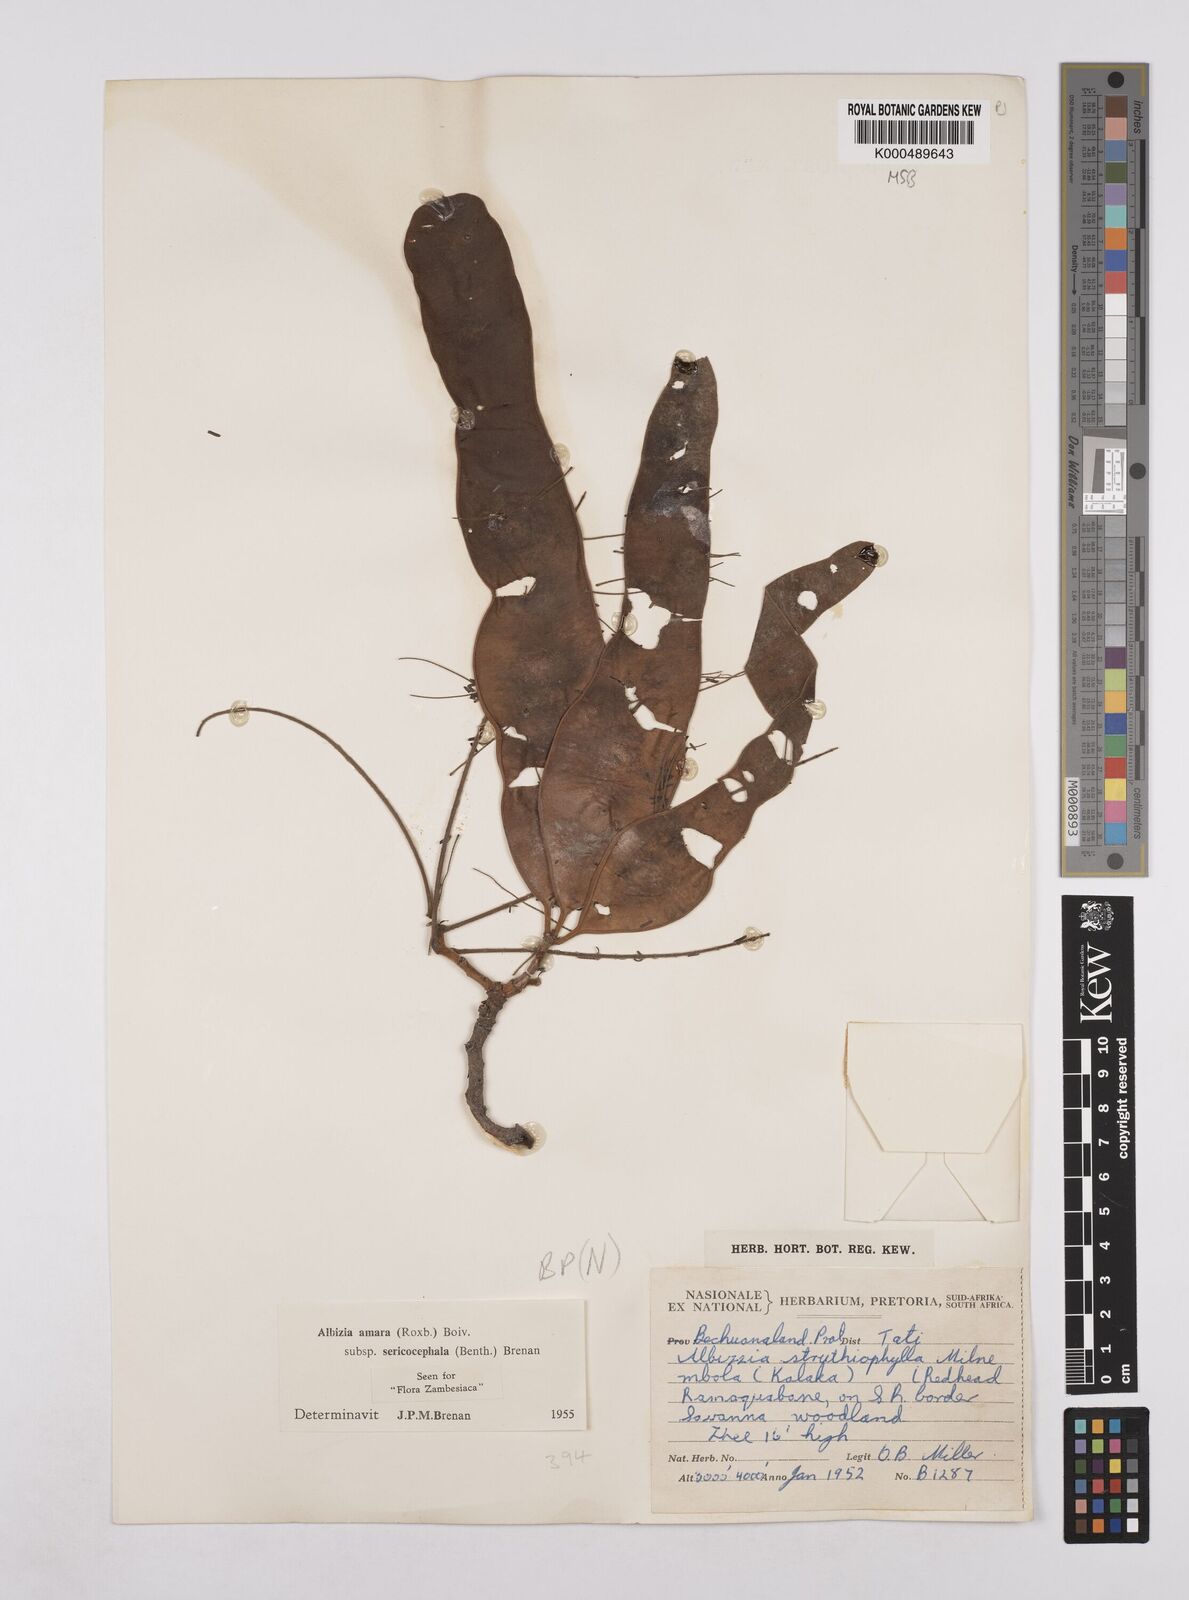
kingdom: Plantae
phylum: Tracheophyta
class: Magnoliopsida
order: Fabales
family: Fabaceae
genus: Albizia
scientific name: Albizia amara
